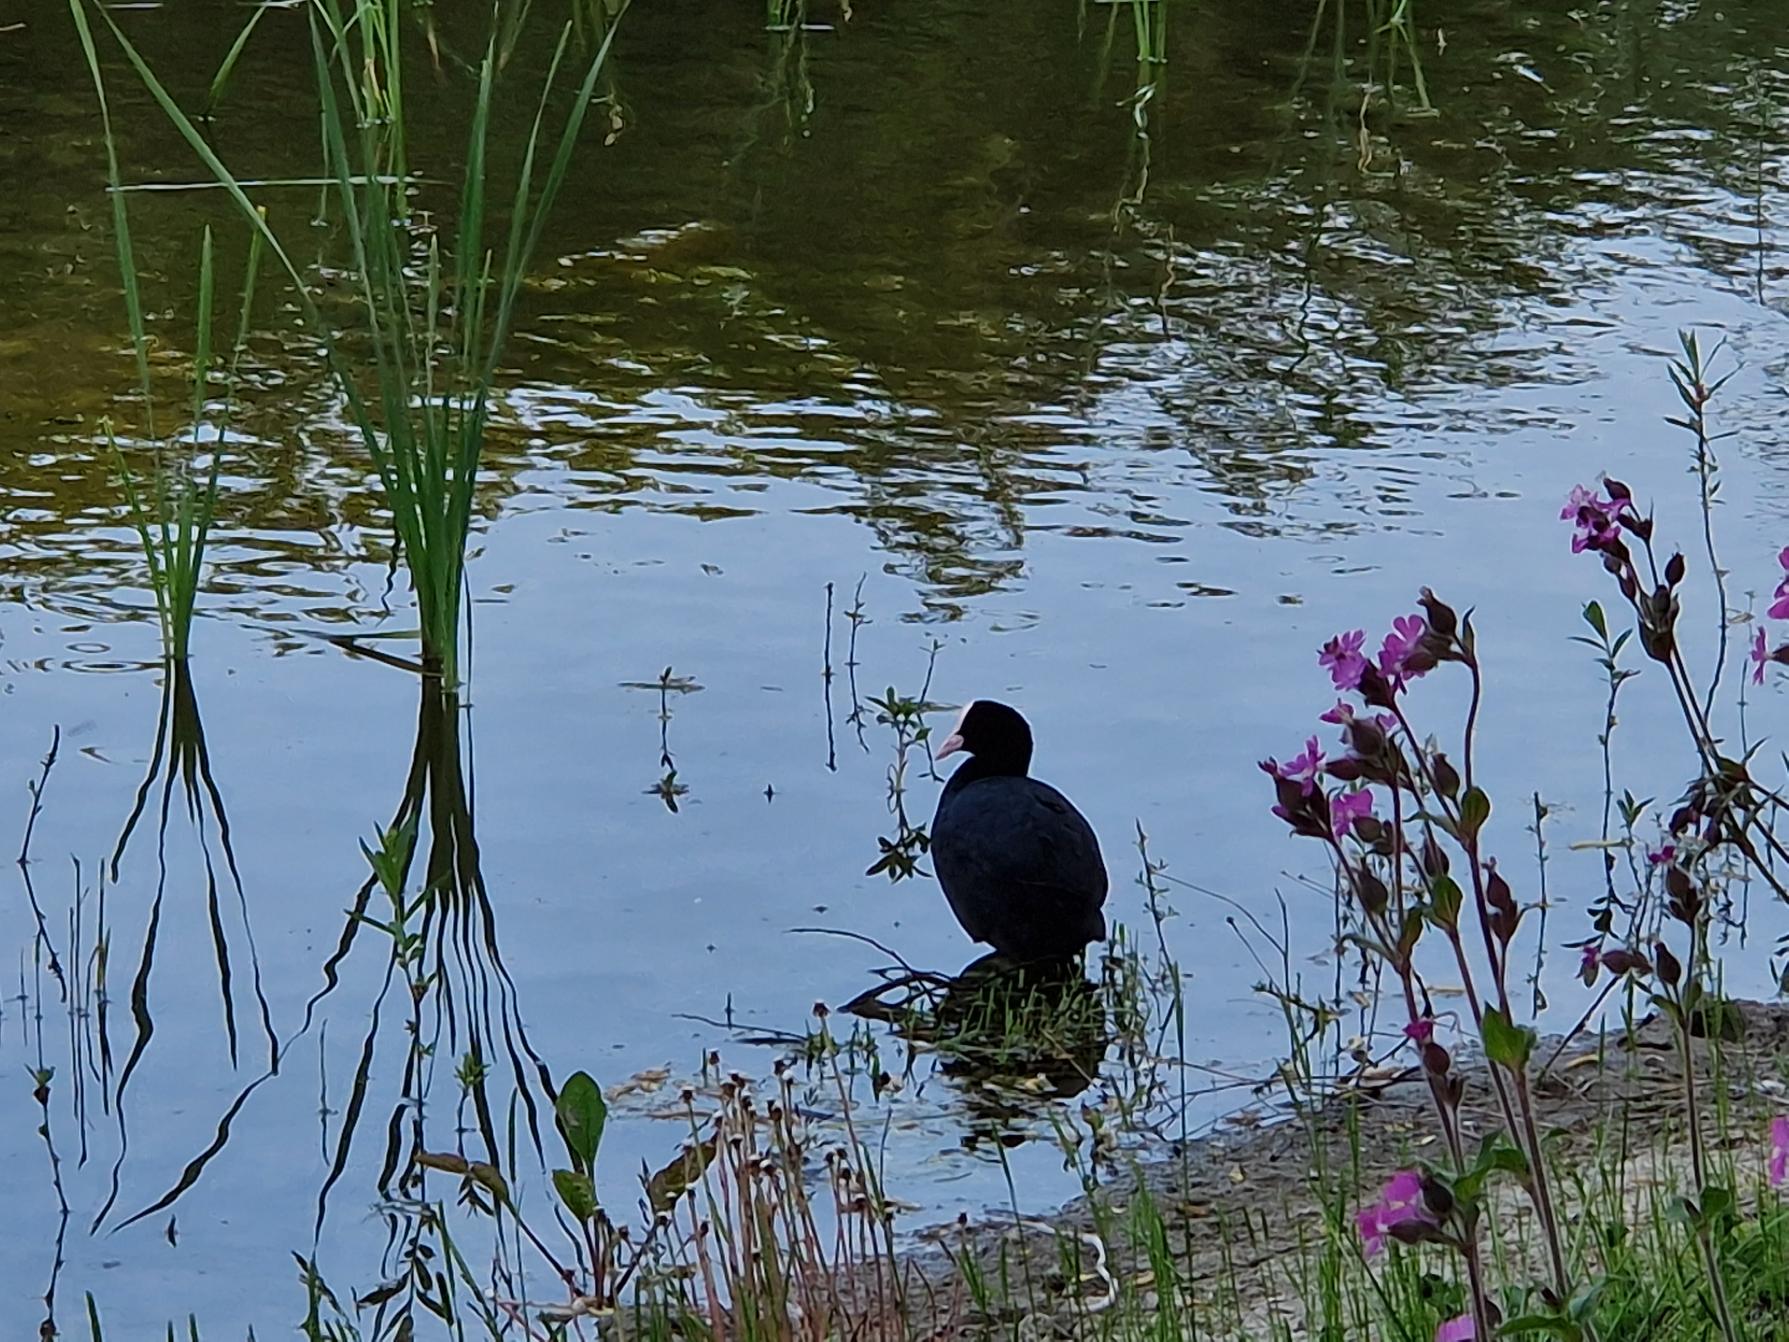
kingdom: Animalia
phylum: Chordata
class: Aves
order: Gruiformes
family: Rallidae
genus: Fulica
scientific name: Fulica atra
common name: Blishøne
